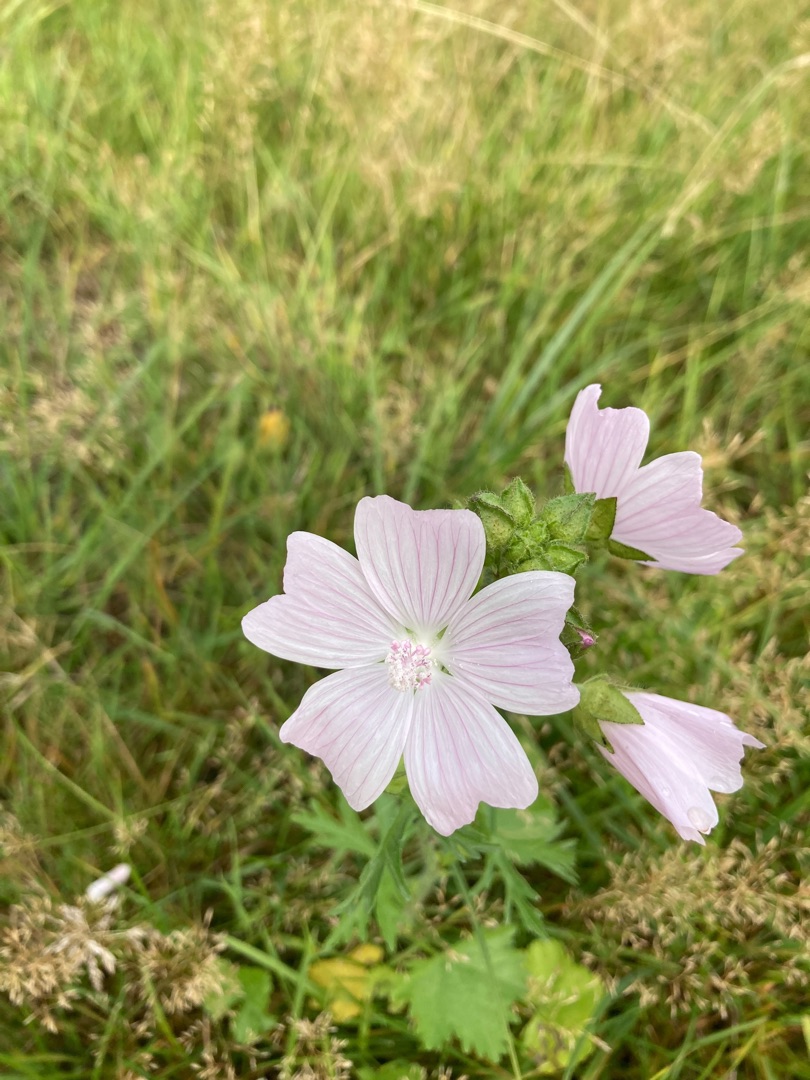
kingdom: Plantae
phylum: Tracheophyta
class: Magnoliopsida
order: Malvales
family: Malvaceae
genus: Malva
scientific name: Malva moschata
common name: Moskus-katost
